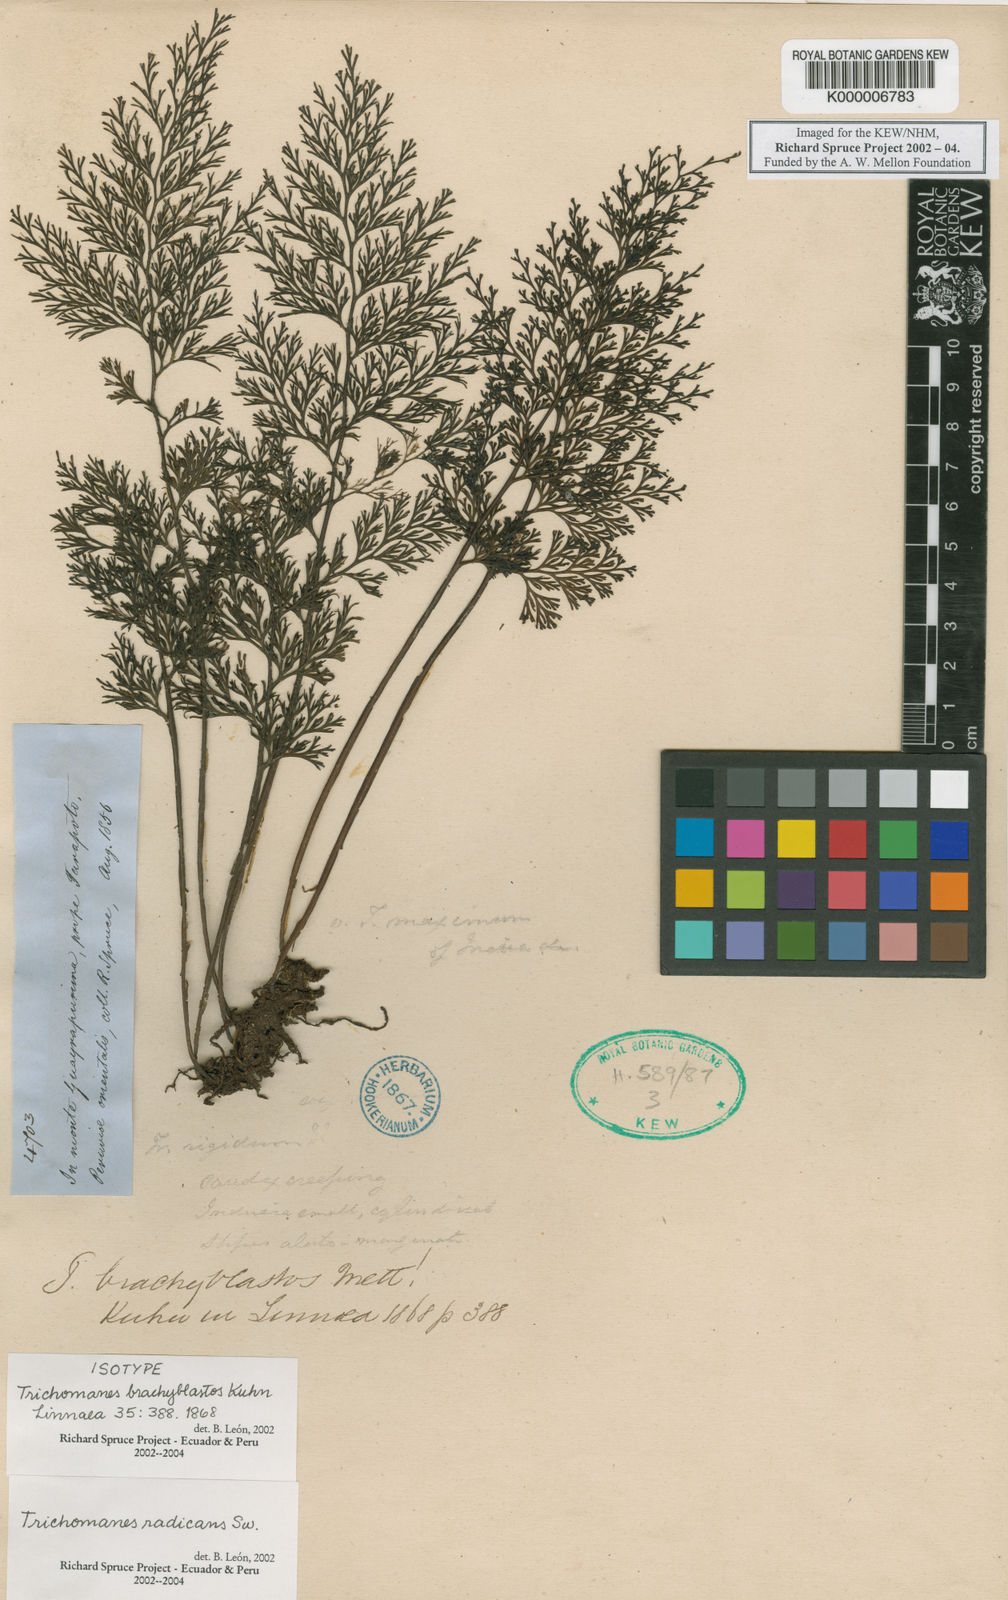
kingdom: Plantae
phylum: Tracheophyta
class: Polypodiopsida
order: Hymenophyllales
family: Hymenophyllaceae
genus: Trichomanes
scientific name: Trichomanes
